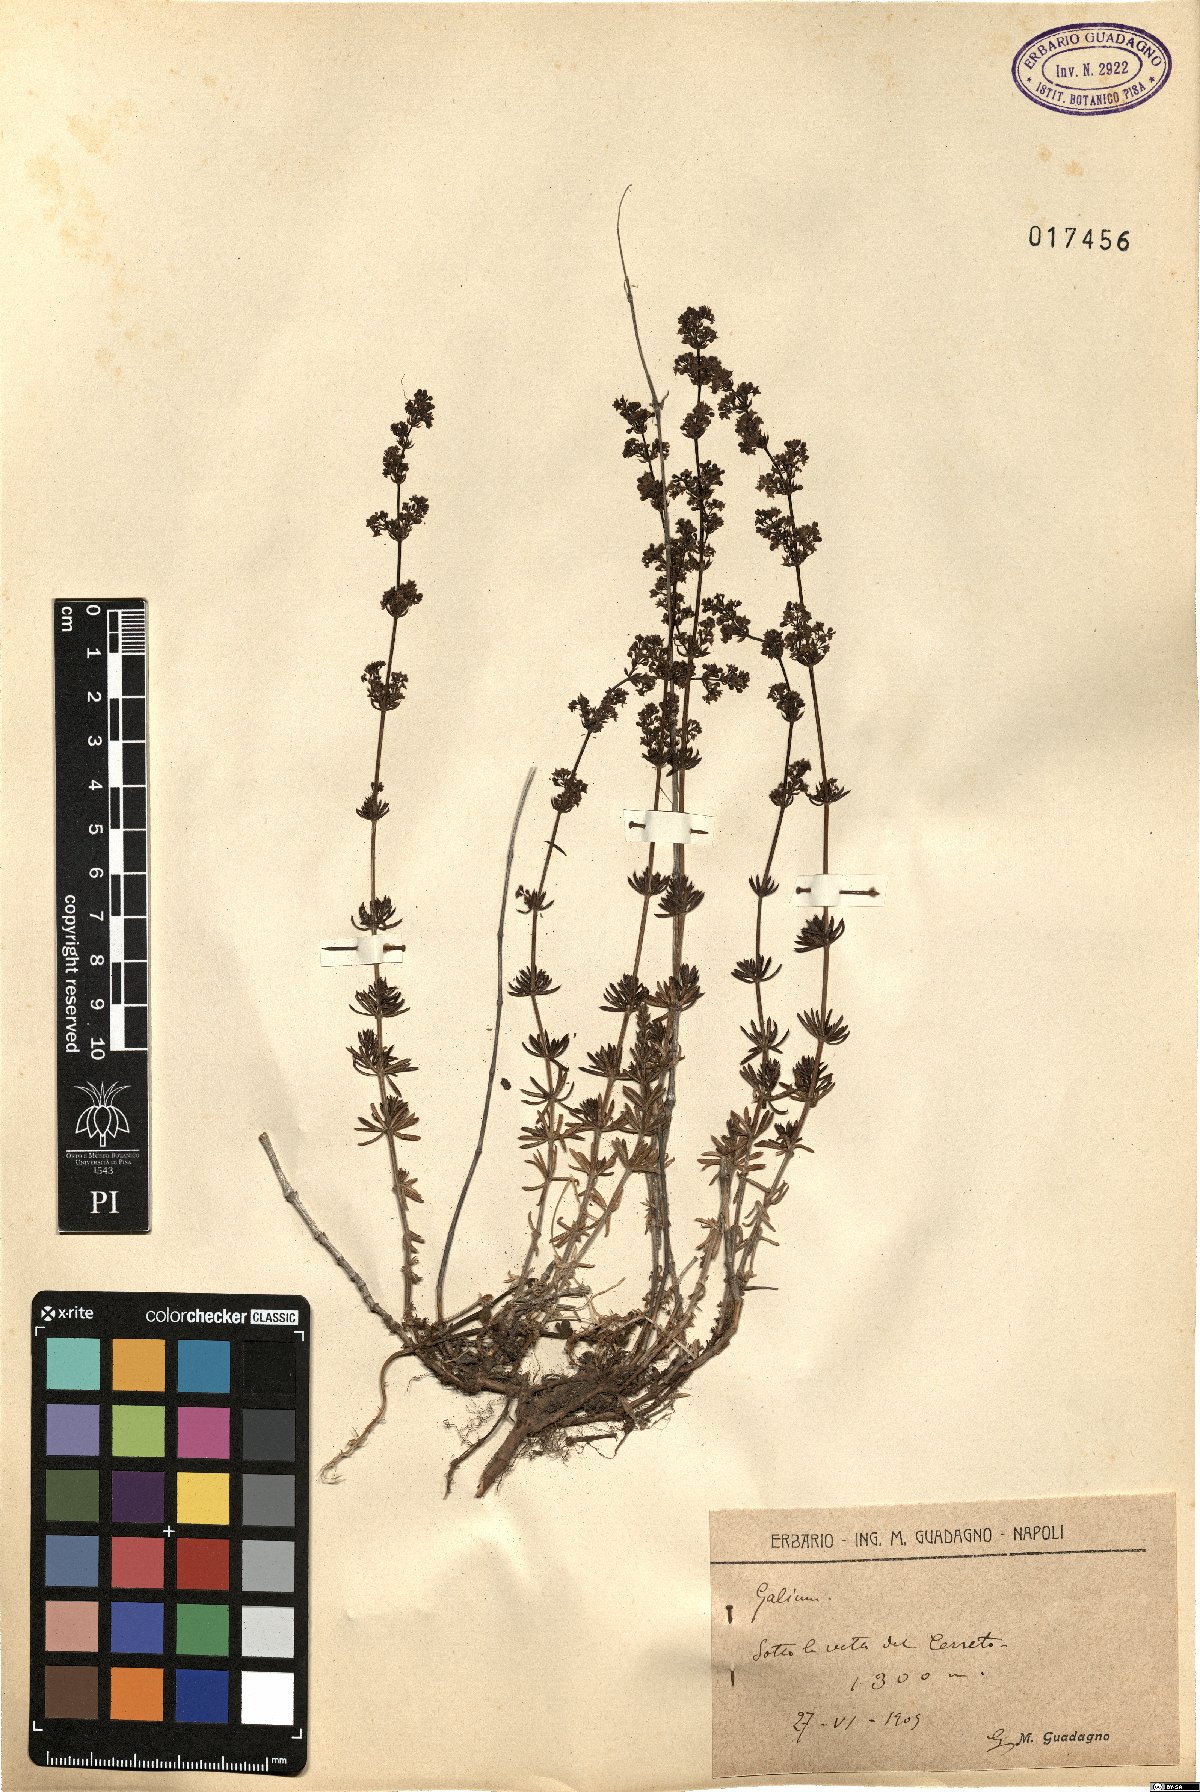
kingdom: Plantae
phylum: Tracheophyta
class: Magnoliopsida
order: Gentianales
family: Rubiaceae
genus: Galium
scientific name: Galium
